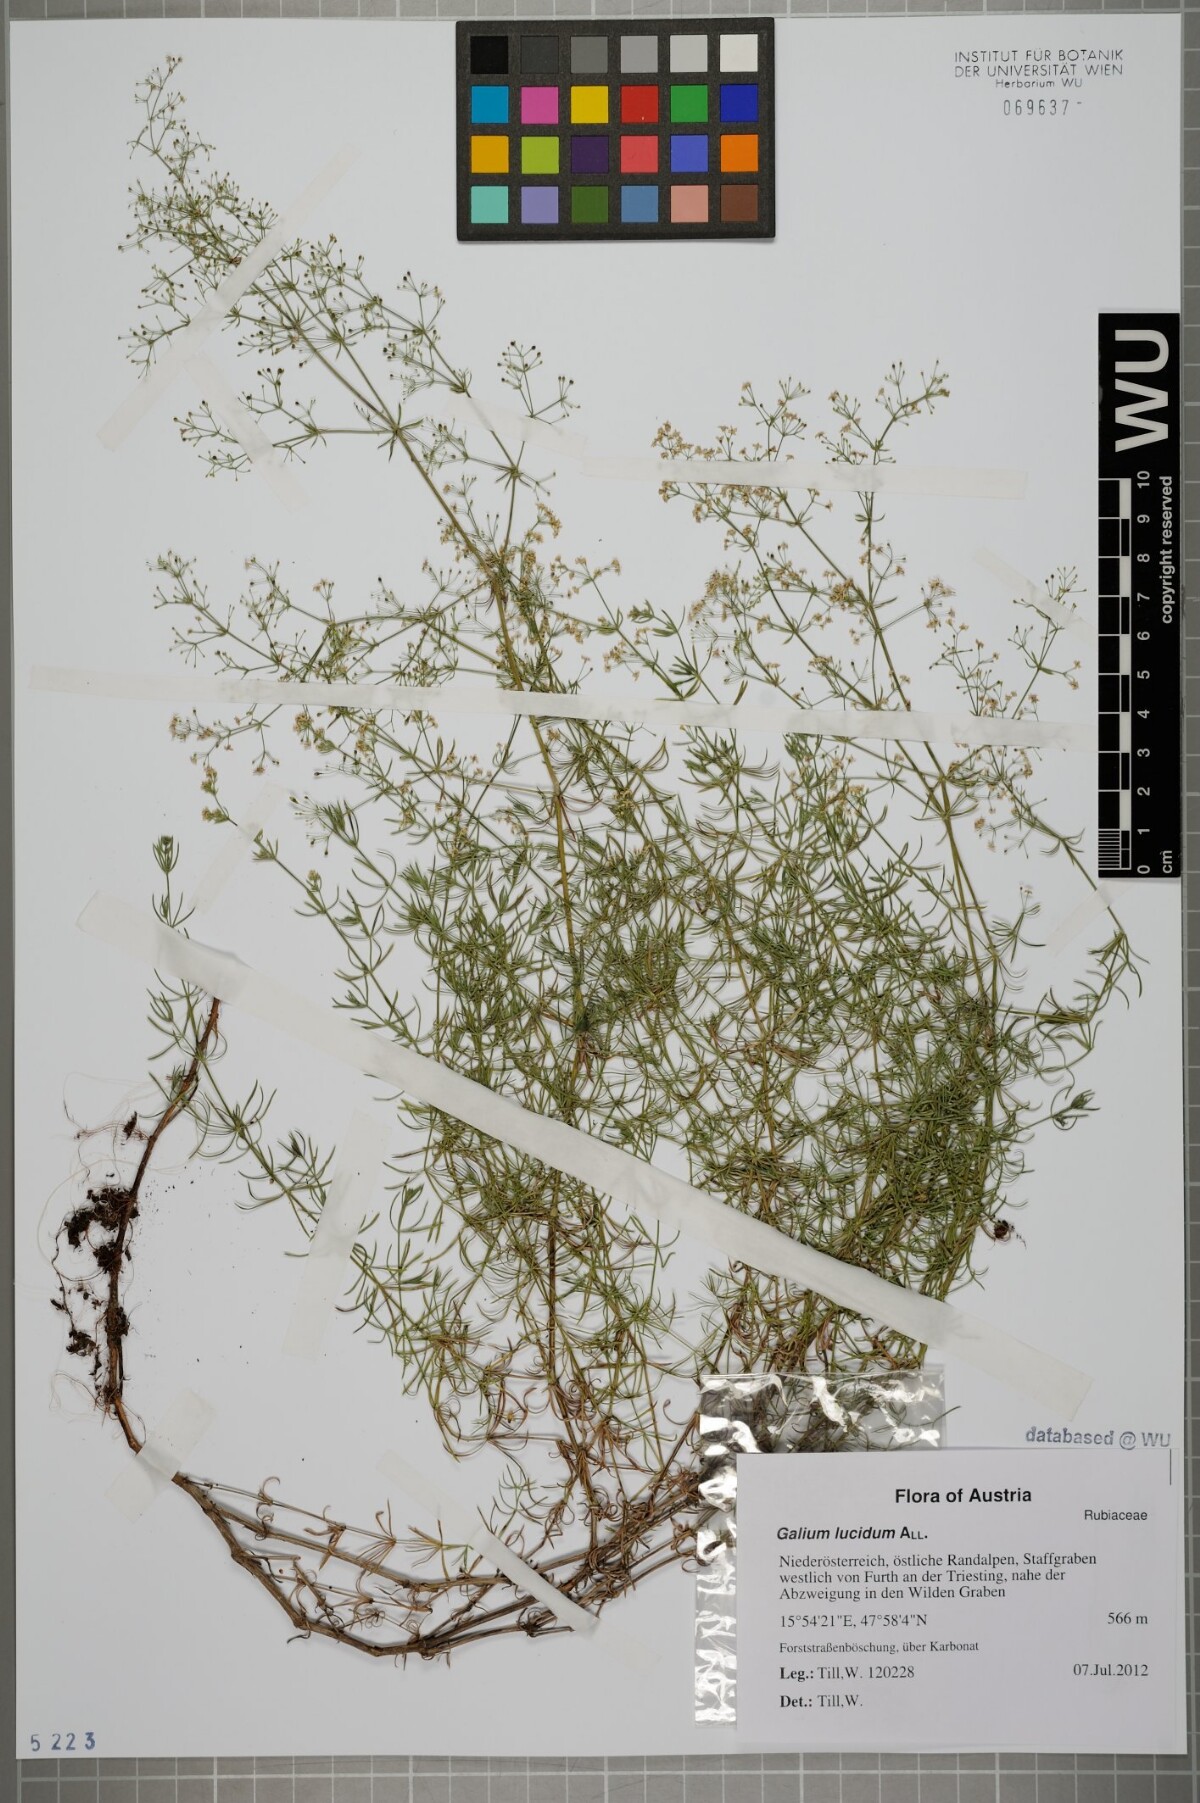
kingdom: Plantae
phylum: Tracheophyta
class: Magnoliopsida
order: Gentianales
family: Rubiaceae
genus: Galium
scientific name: Galium lucidum
